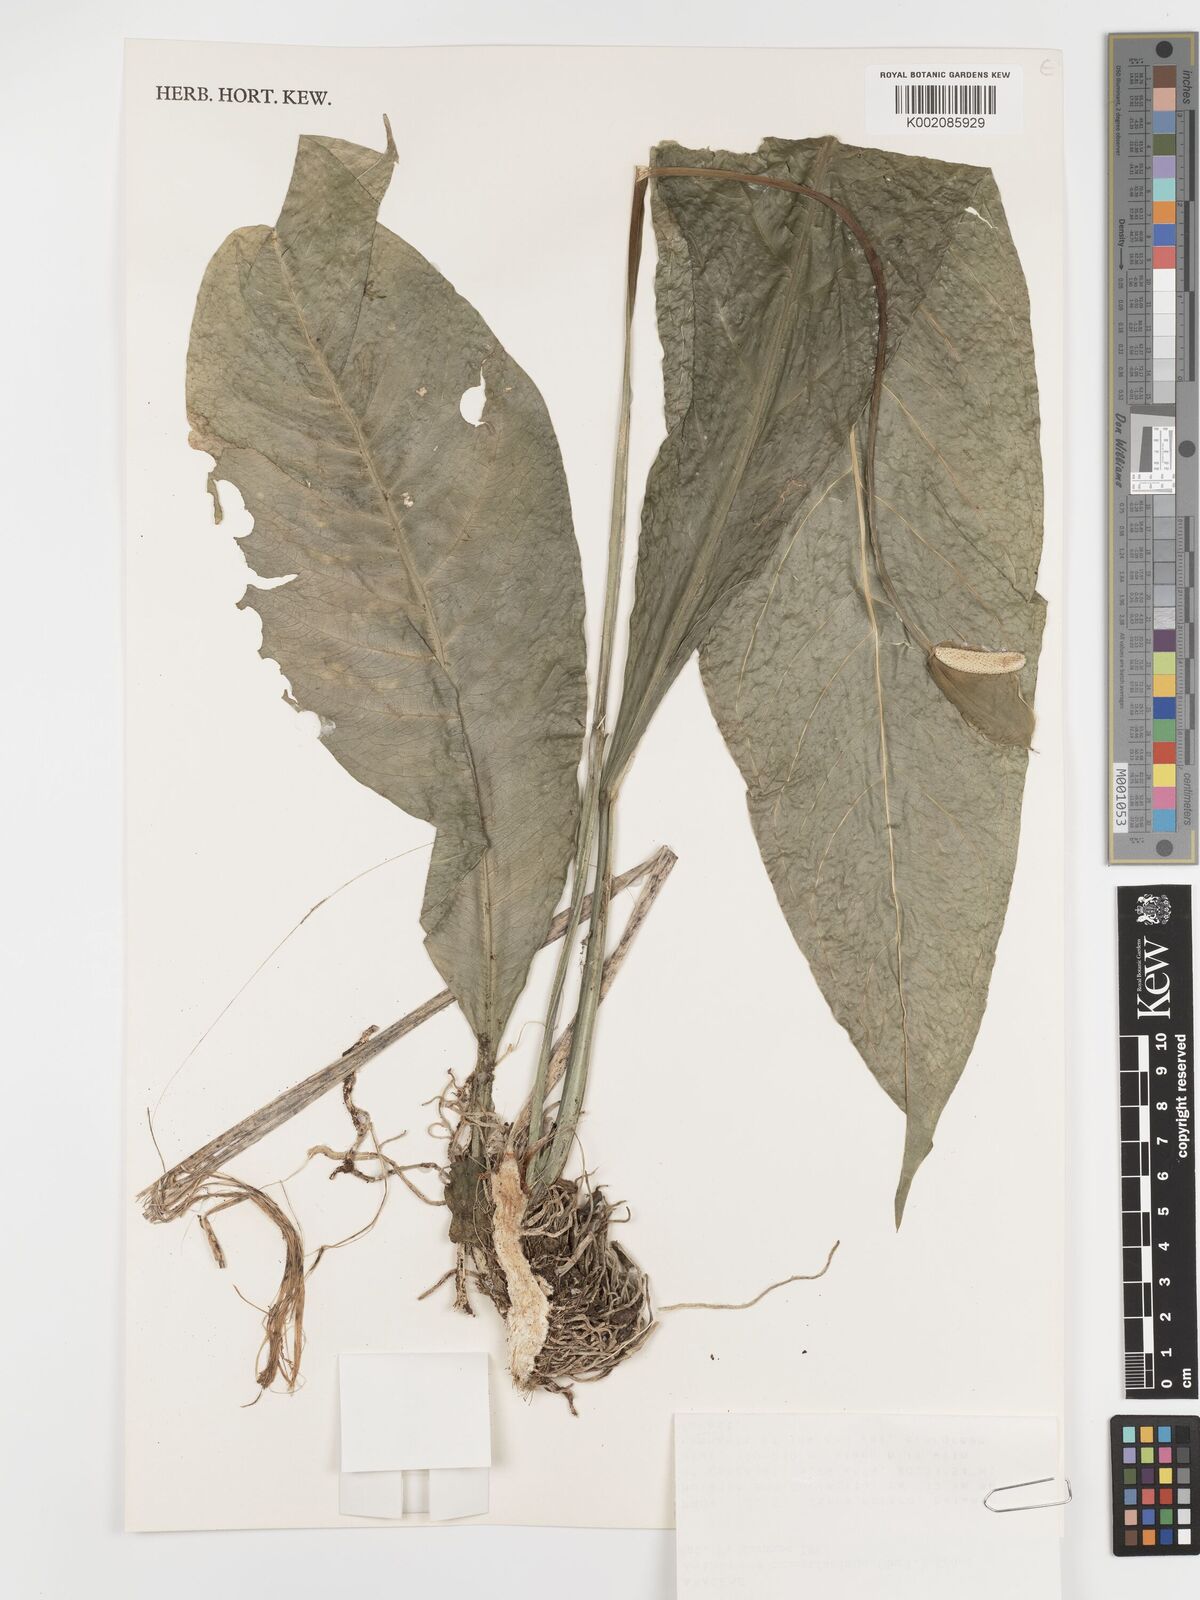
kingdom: Plantae
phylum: Tracheophyta
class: Liliopsida
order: Alismatales
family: Araceae
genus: Anthurium
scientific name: Anthurium consobrinum
